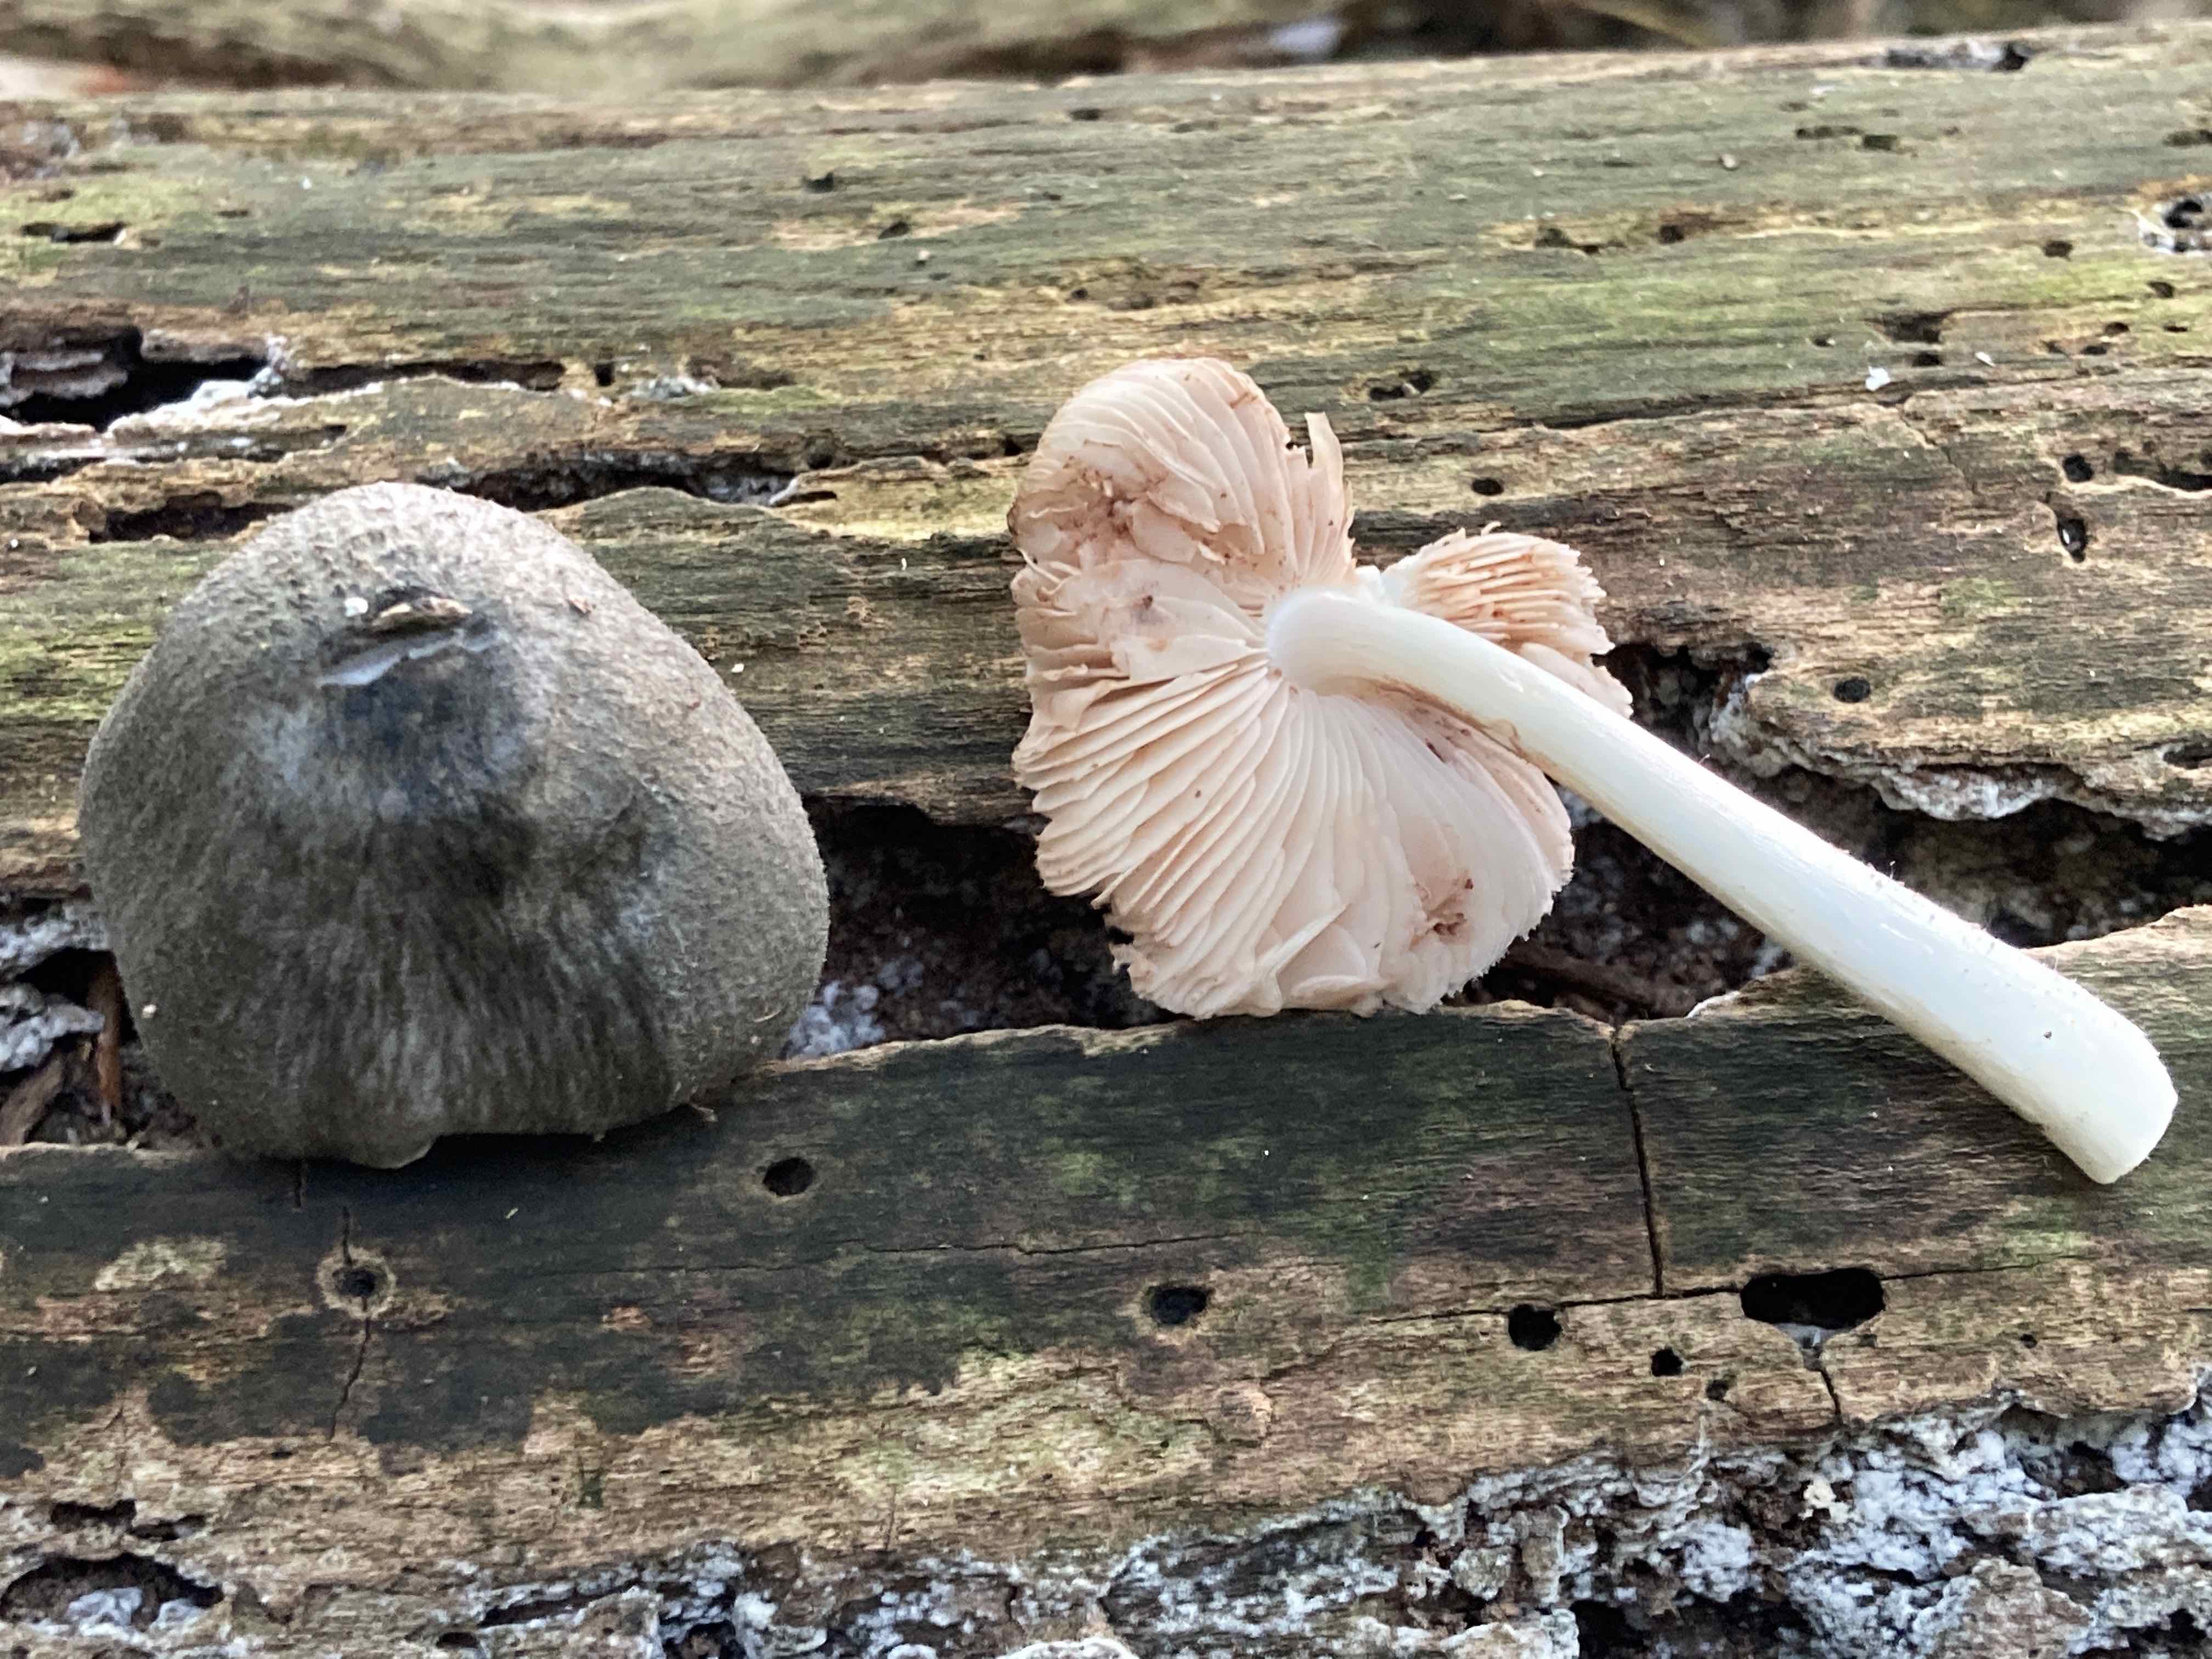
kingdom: Fungi
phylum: Basidiomycota
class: Agaricomycetes
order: Agaricales
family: Pluteaceae
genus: Pluteus
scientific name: Pluteus salicinus
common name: stiv skærmhat
